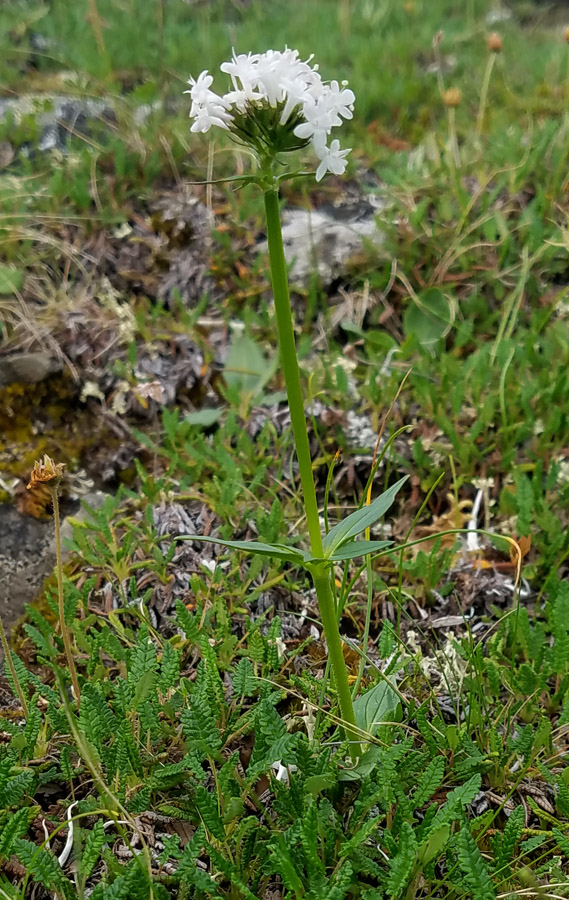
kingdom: Plantae
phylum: Tracheophyta
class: Magnoliopsida
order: Dipsacales
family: Caprifoliaceae
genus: Valeriana
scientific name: Valeriana capitata
